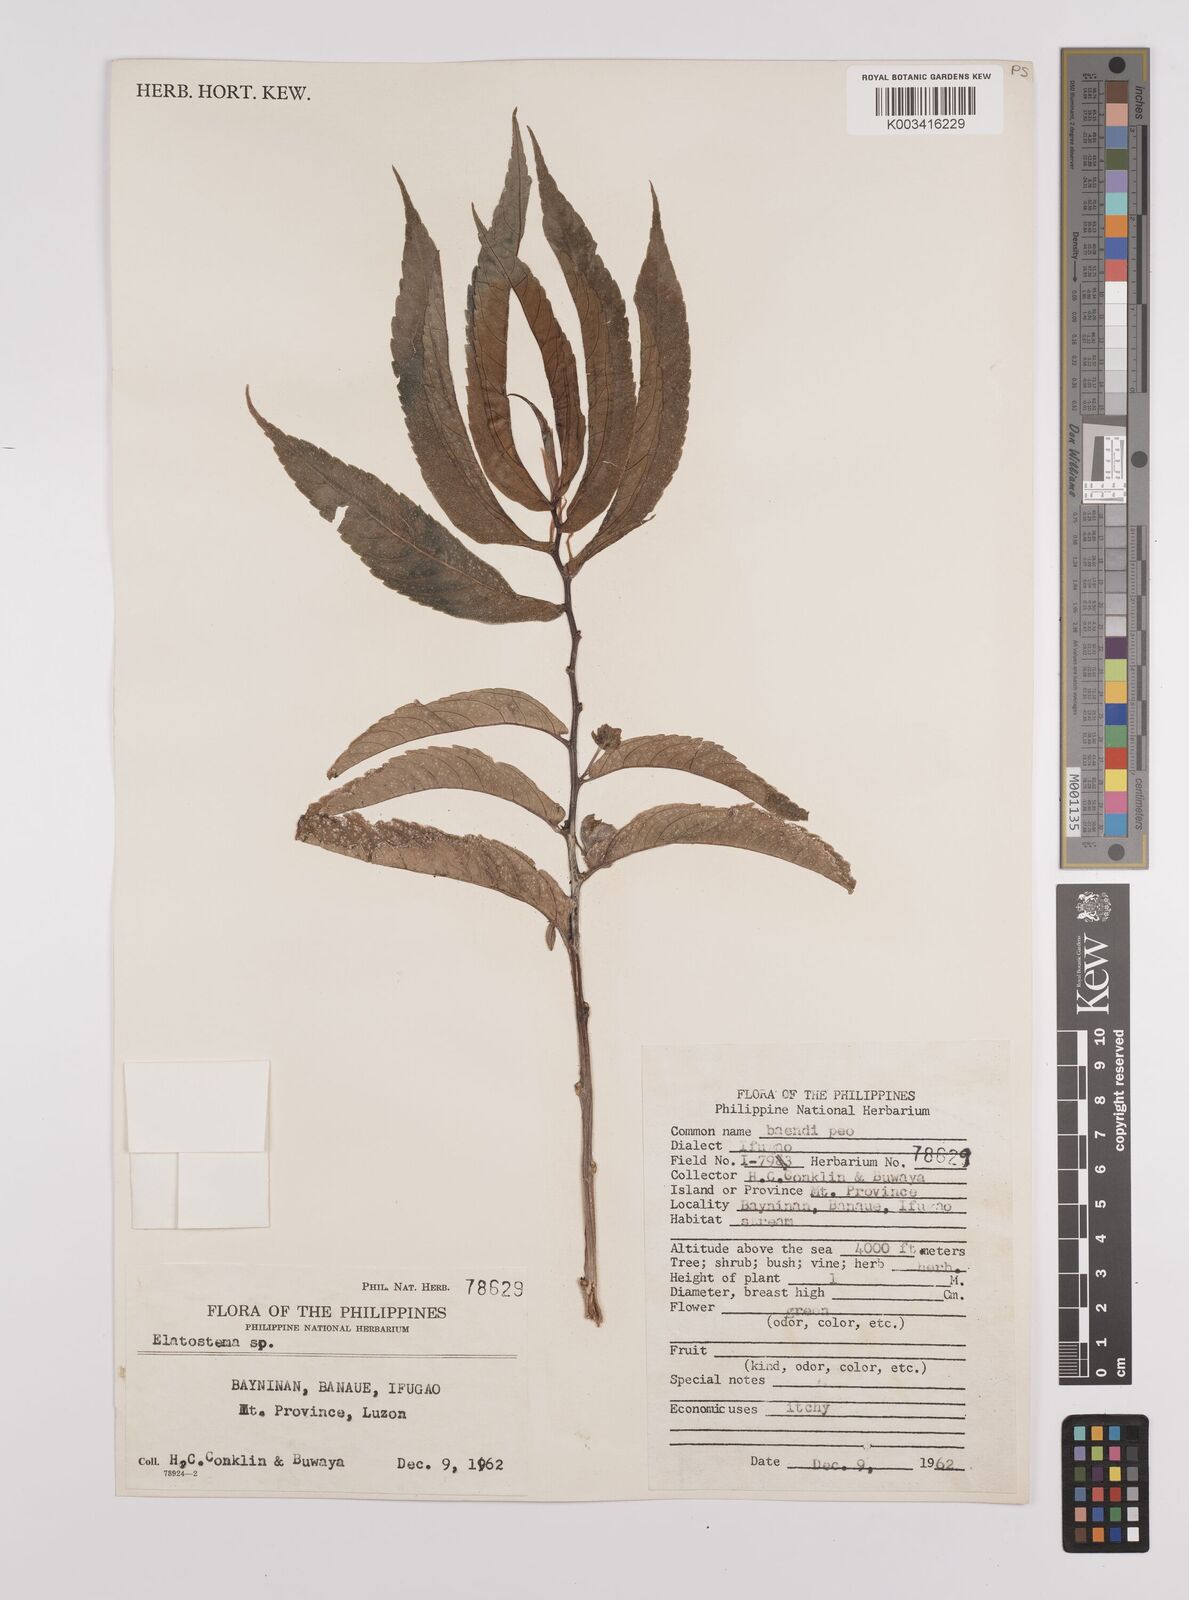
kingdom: Plantae
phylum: Tracheophyta
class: Magnoliopsida
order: Rosales
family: Urticaceae
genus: Elatostema
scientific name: Elatostema
